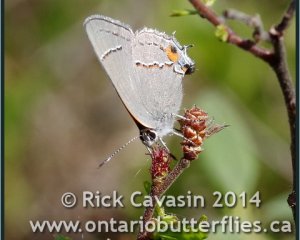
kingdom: Animalia
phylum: Arthropoda
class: Insecta
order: Lepidoptera
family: Lycaenidae
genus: Strymon
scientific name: Strymon melinus
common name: Gray Hairstreak
